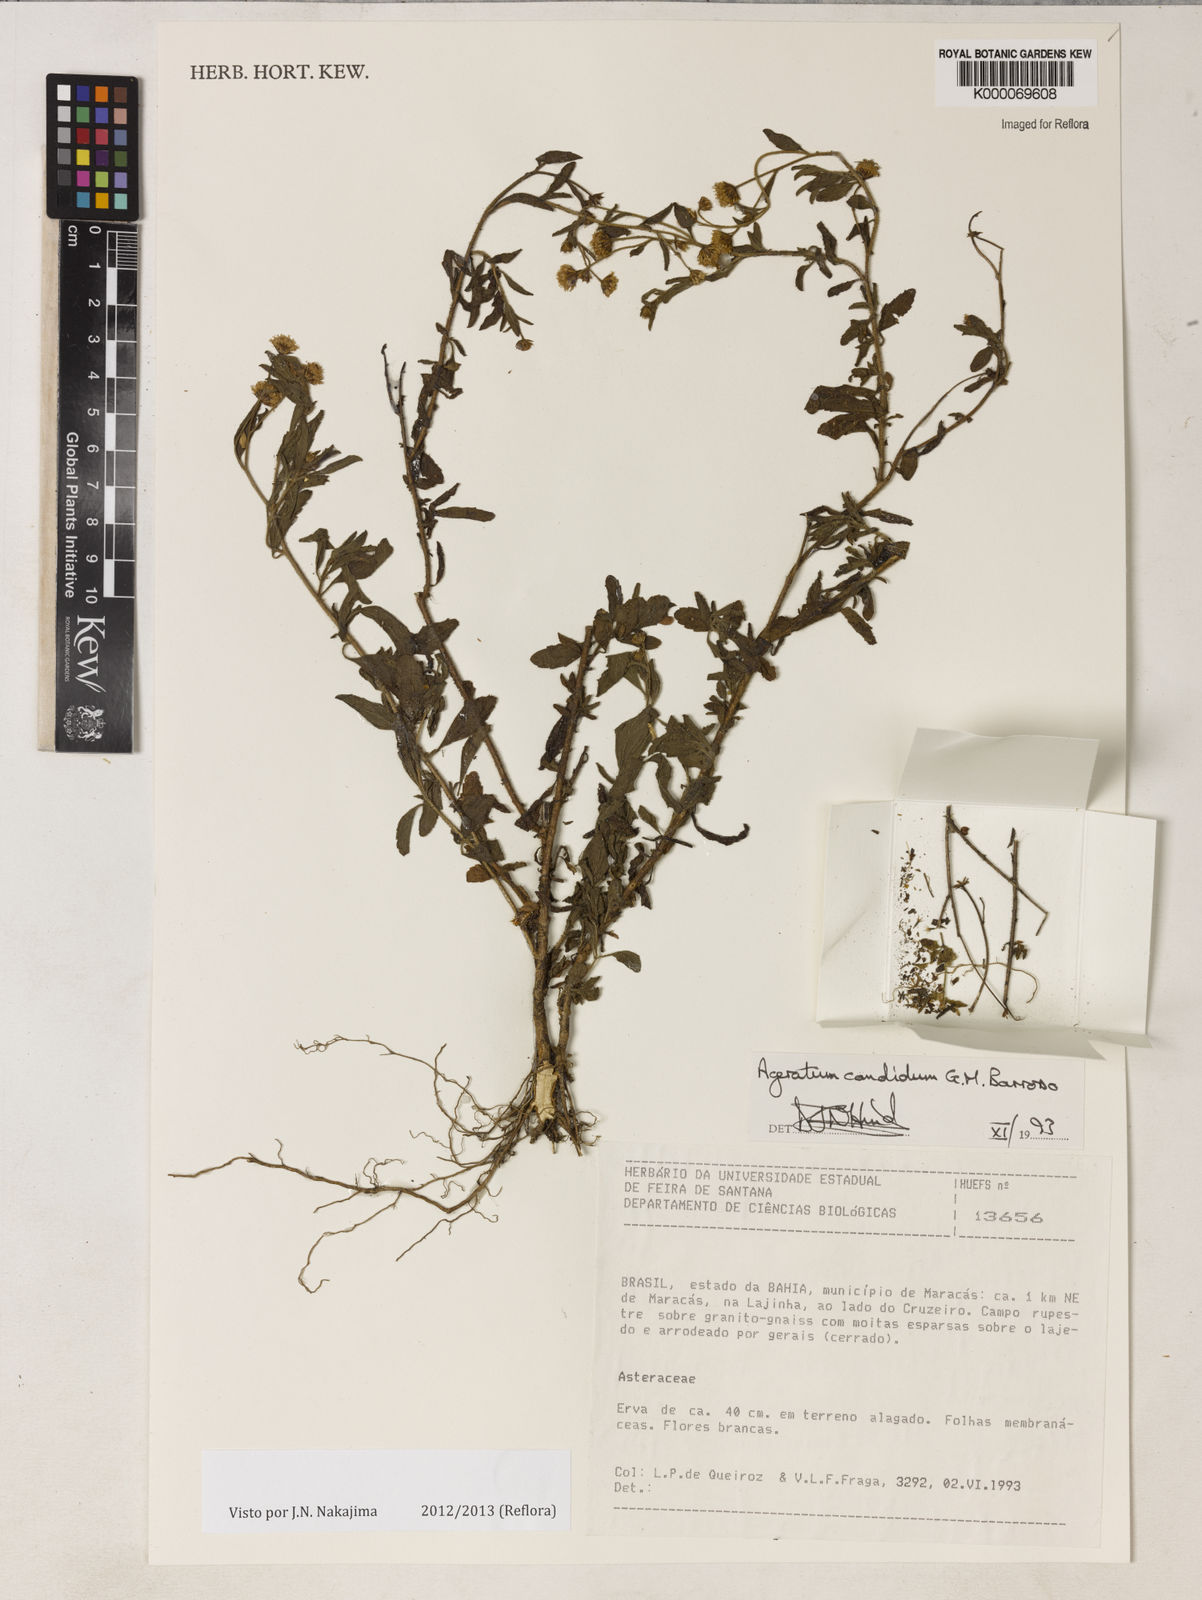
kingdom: Plantae
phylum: Tracheophyta
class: Magnoliopsida
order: Asterales
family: Asteraceae
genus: Ageratum
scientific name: Ageratum candidum
